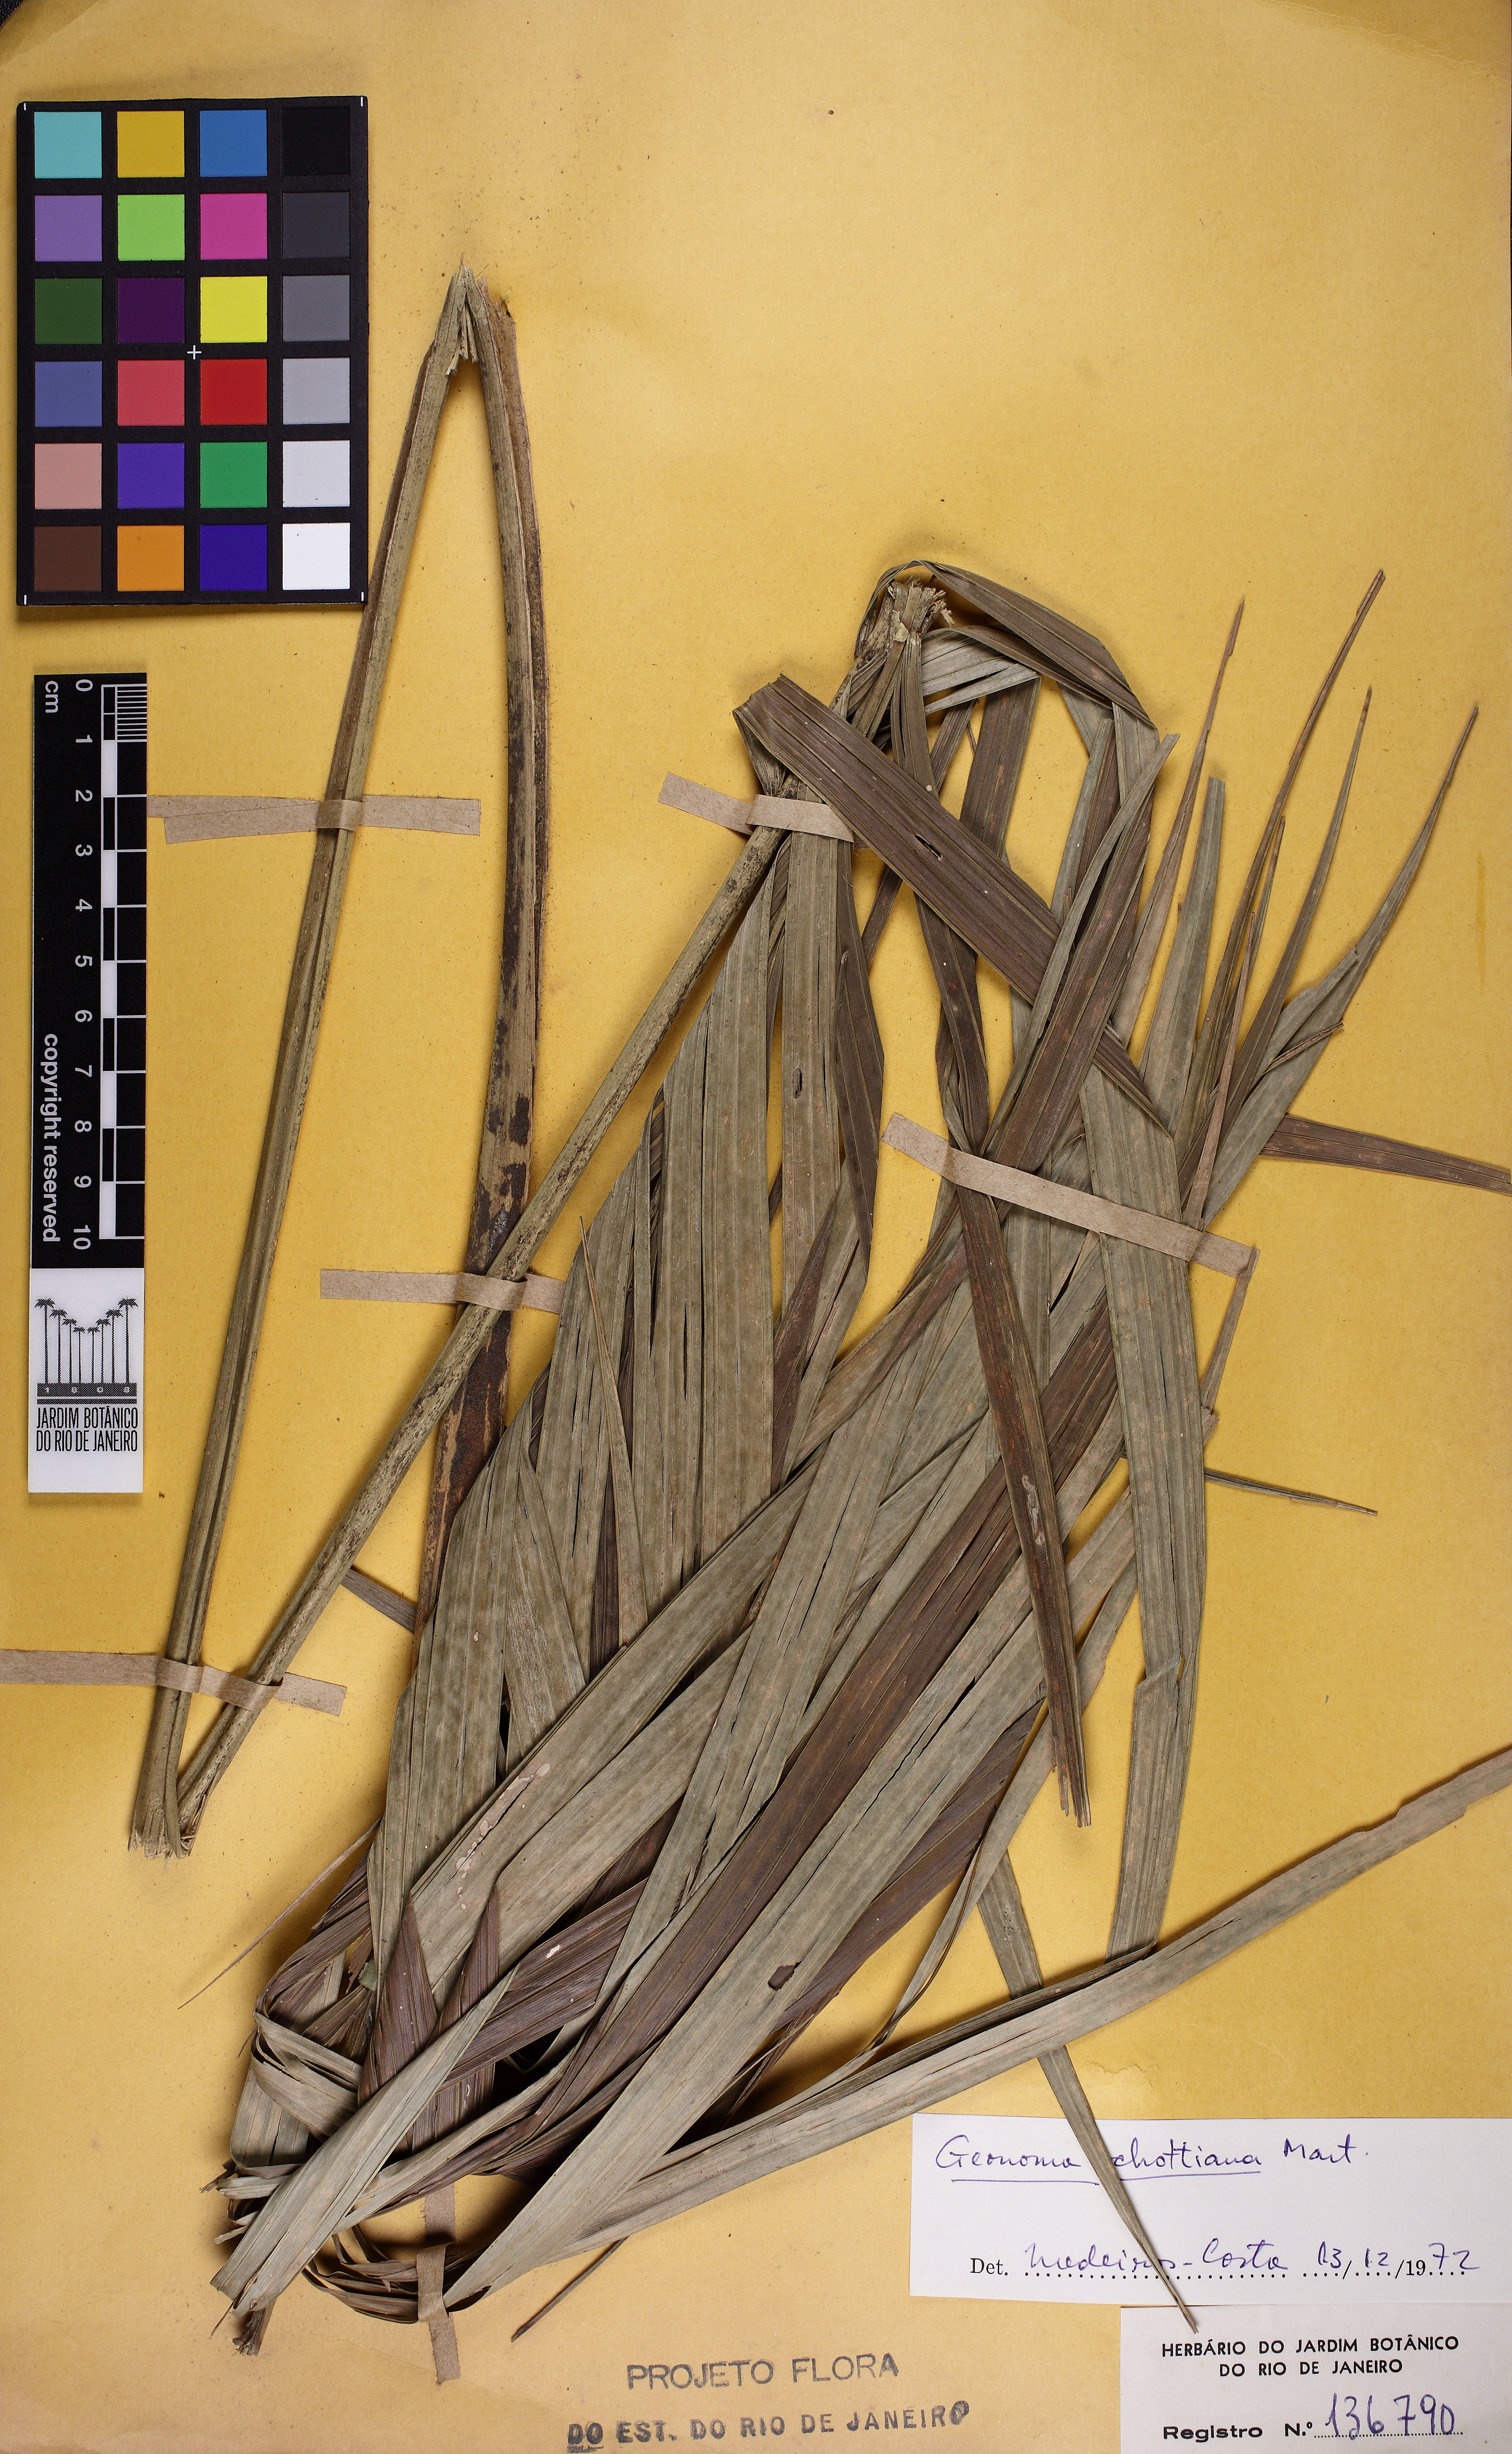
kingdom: Plantae
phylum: Tracheophyta
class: Liliopsida
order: Arecales
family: Arecaceae
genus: Geonoma
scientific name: Geonoma schottiana
